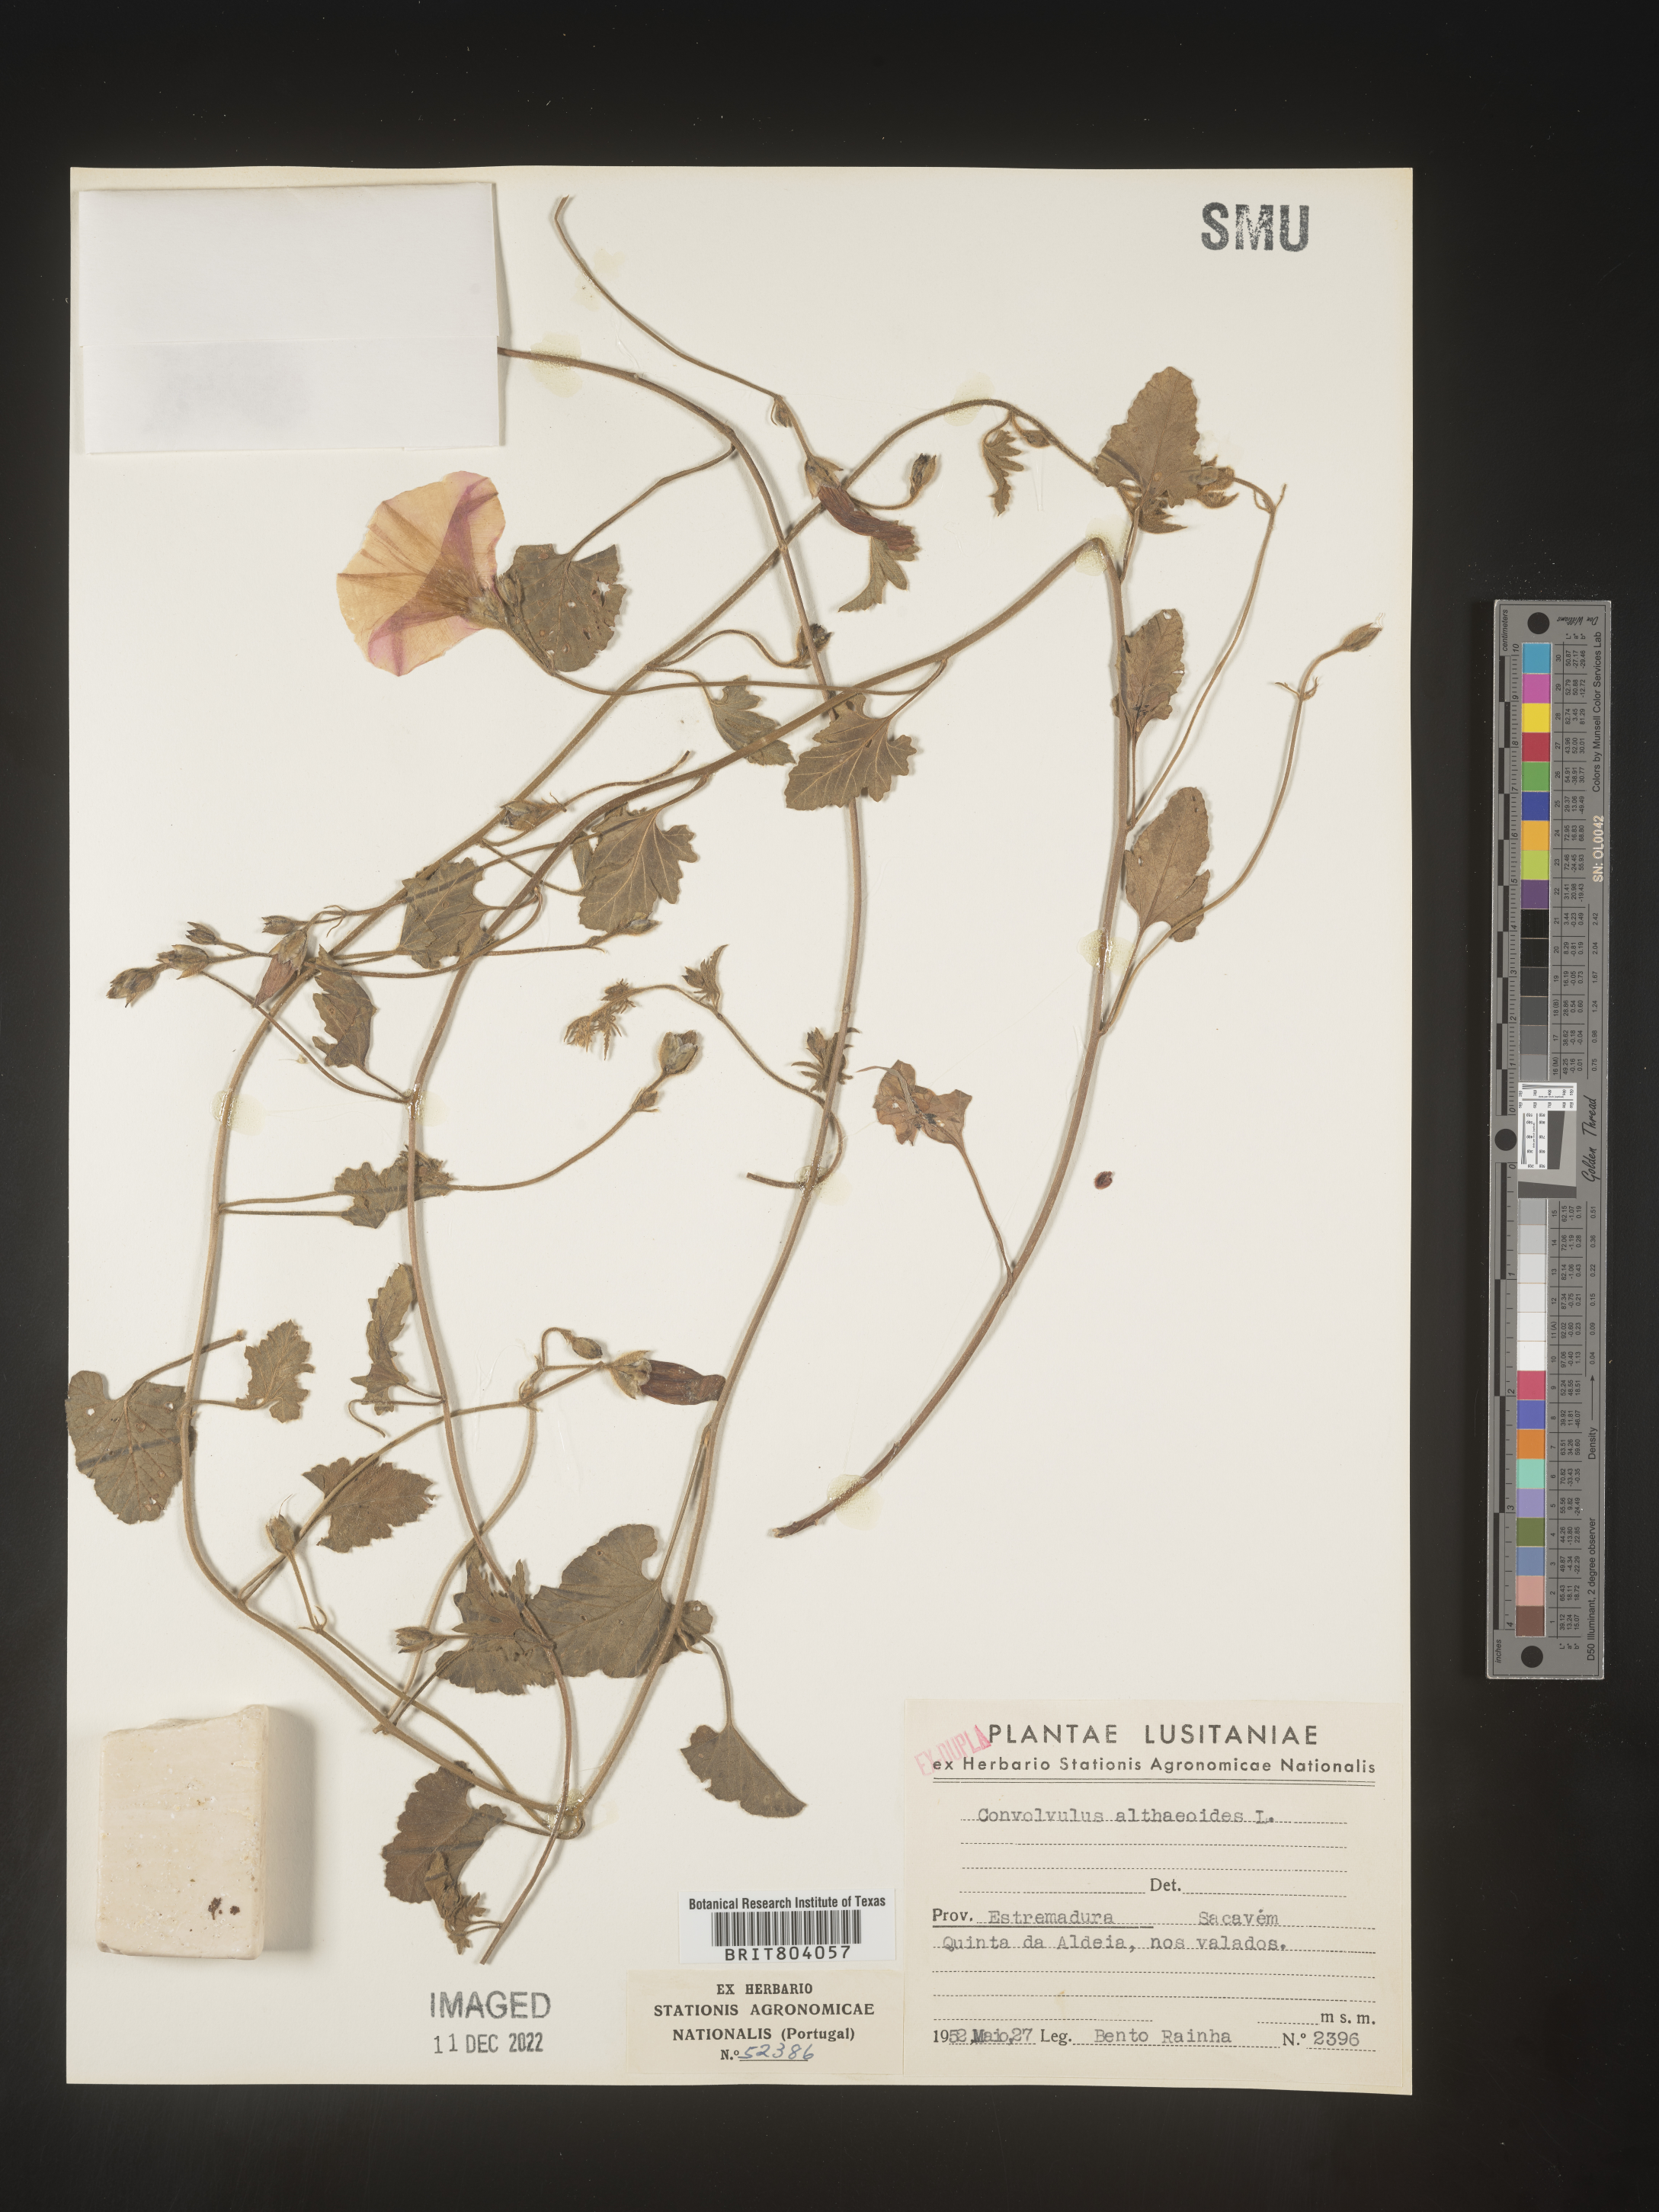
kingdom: Plantae
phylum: Tracheophyta
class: Magnoliopsida
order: Solanales
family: Convolvulaceae
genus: Convolvulus
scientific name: Convolvulus
